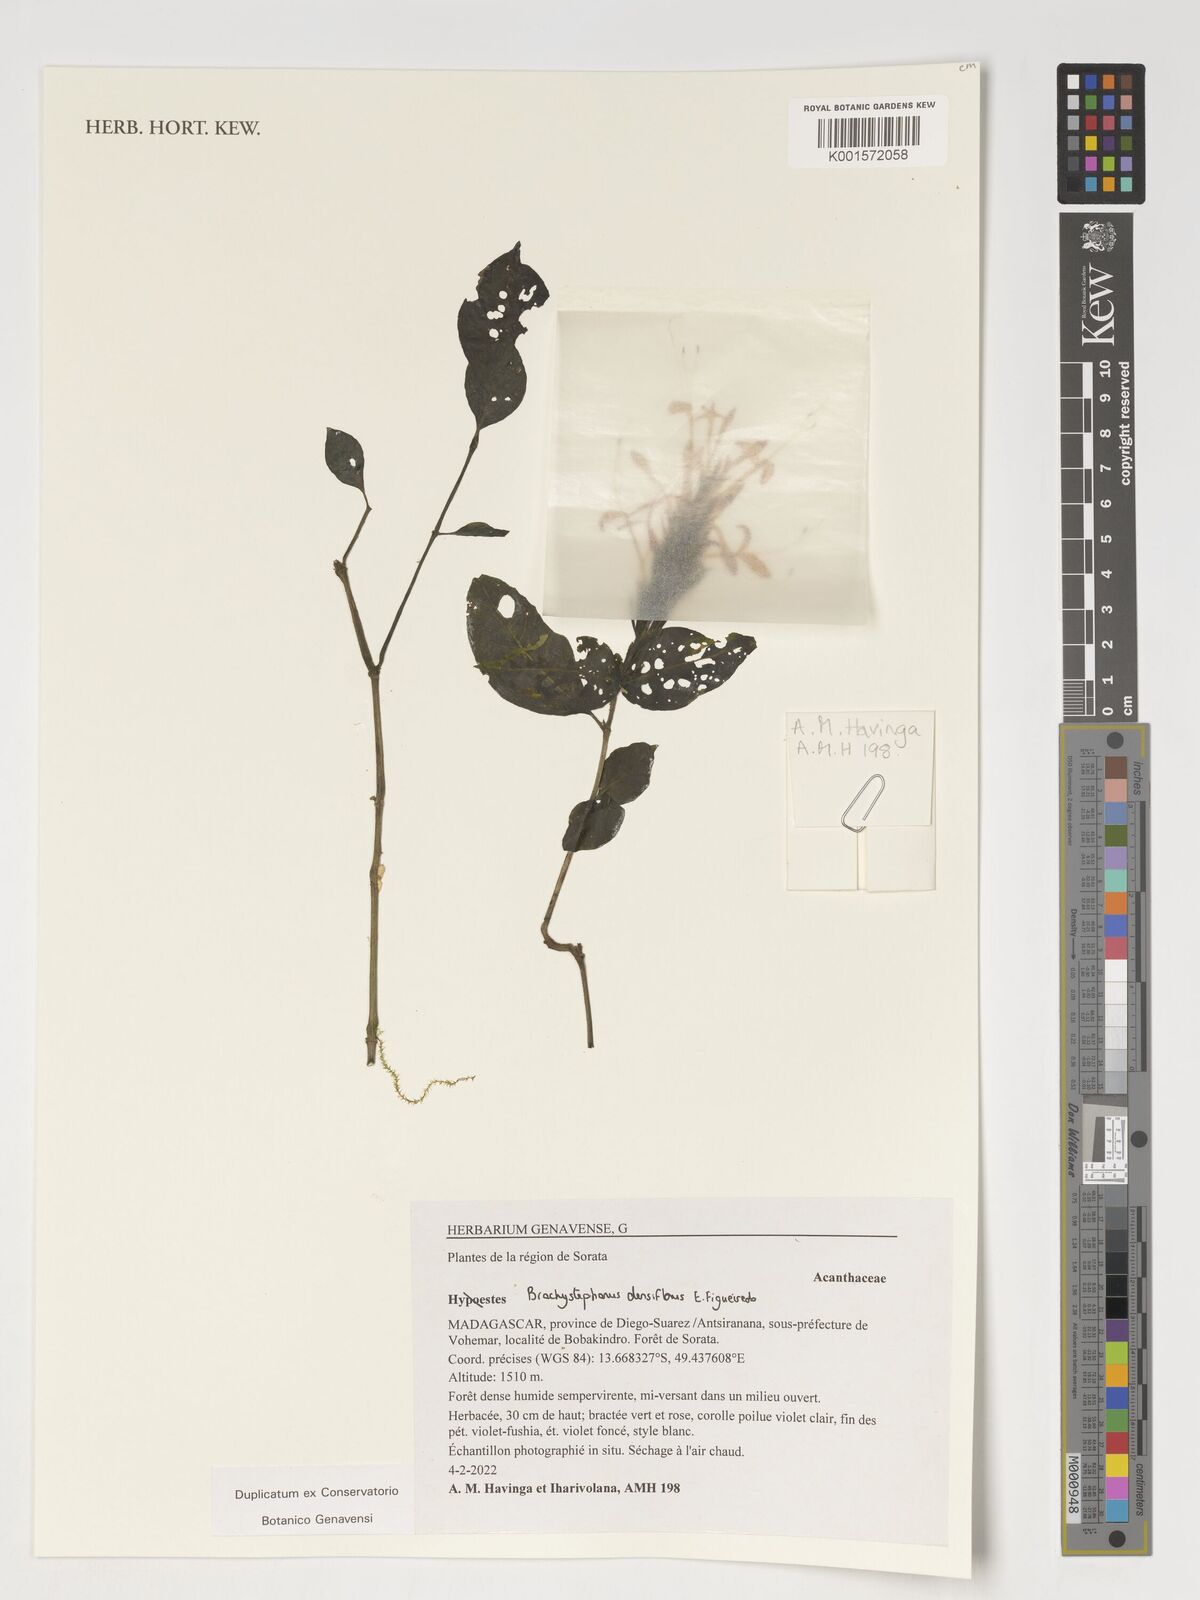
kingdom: Plantae
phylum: Tracheophyta
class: Magnoliopsida
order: Lamiales
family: Acanthaceae
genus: Hypoestes
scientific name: Hypoestes
